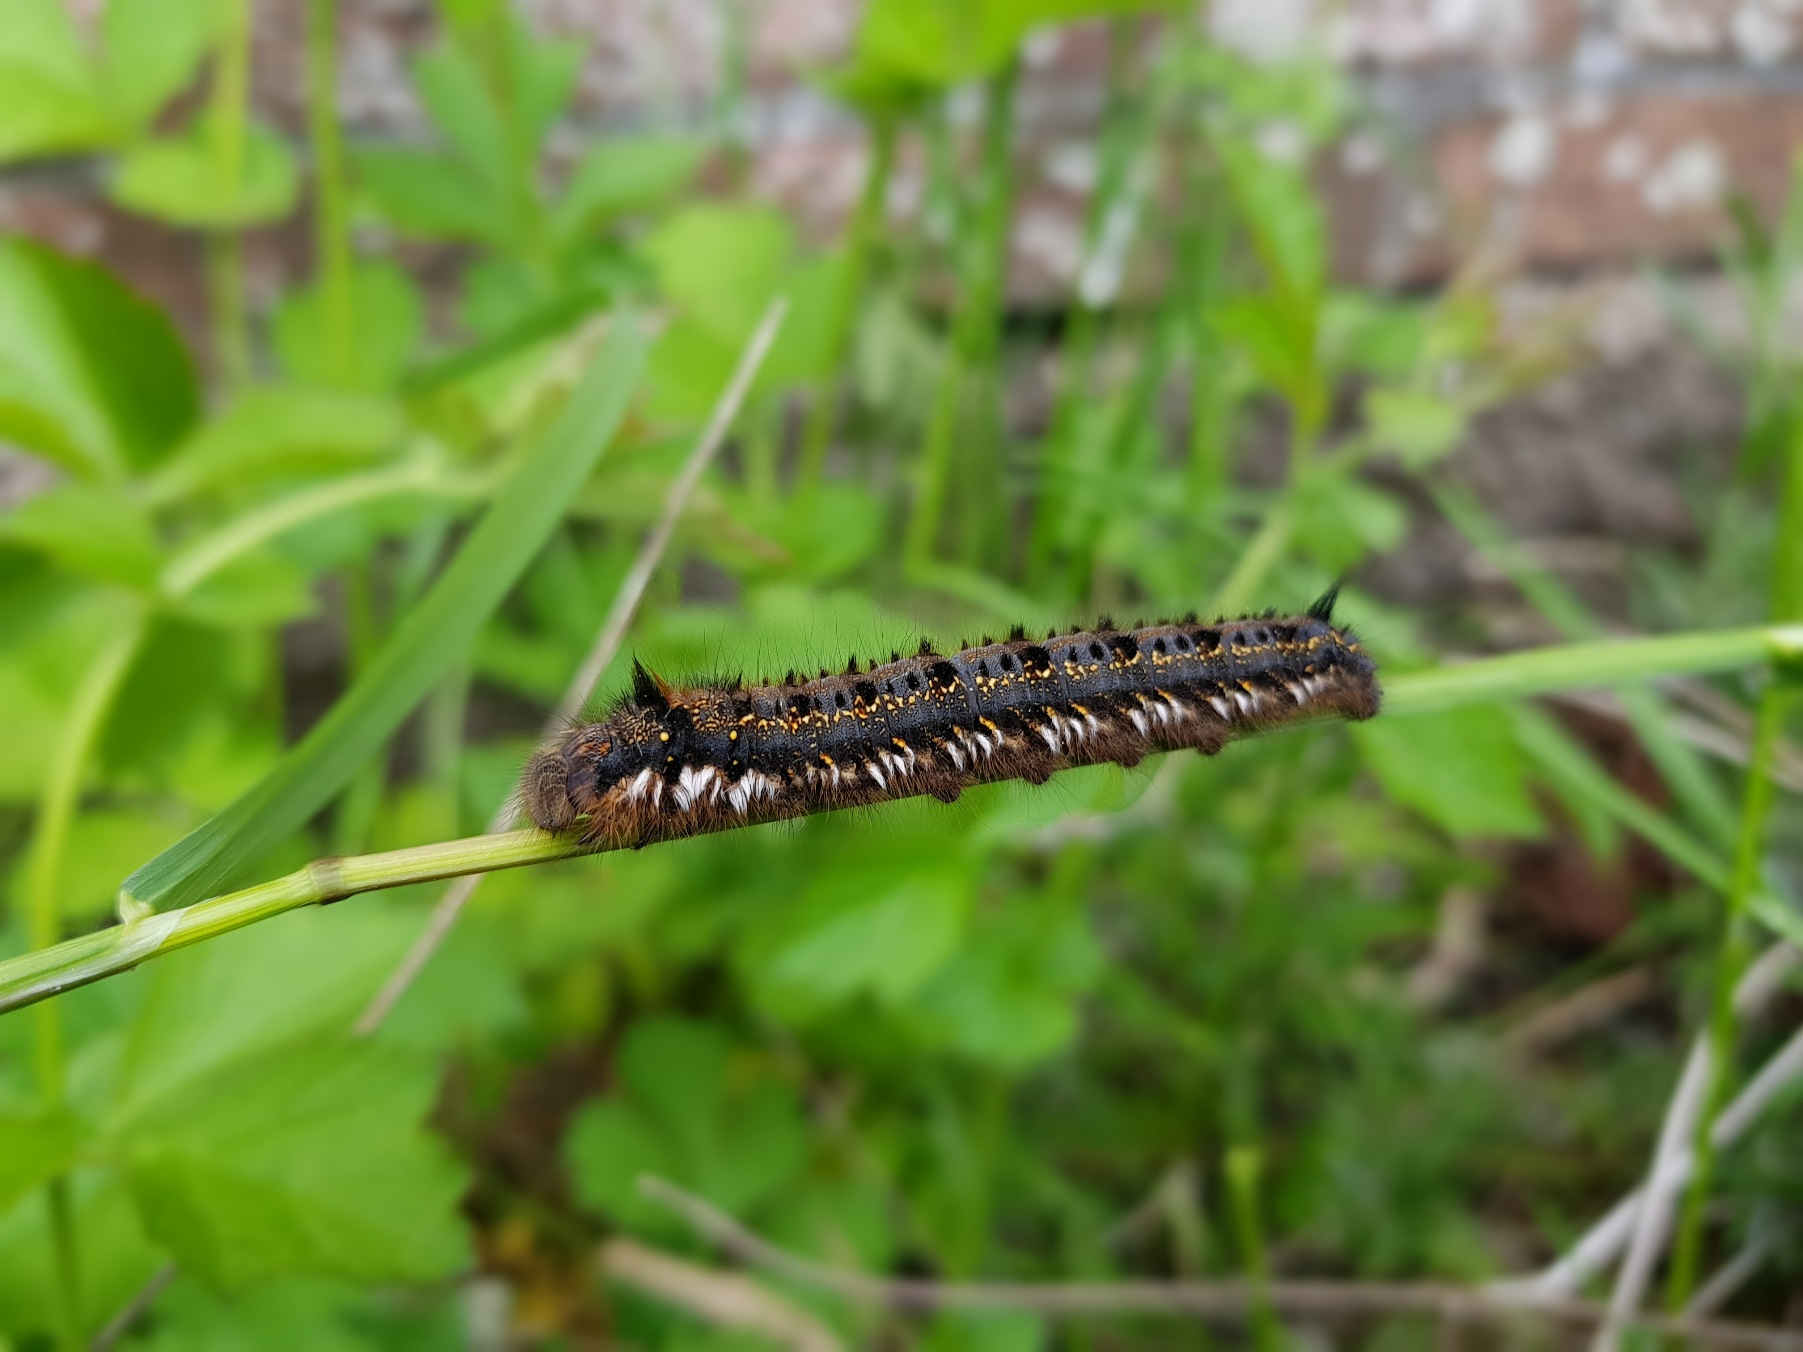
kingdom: Animalia
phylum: Arthropoda
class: Insecta
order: Lepidoptera
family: Lasiocampidae
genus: Euthrix
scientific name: Euthrix potatoria
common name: Græsspinder
